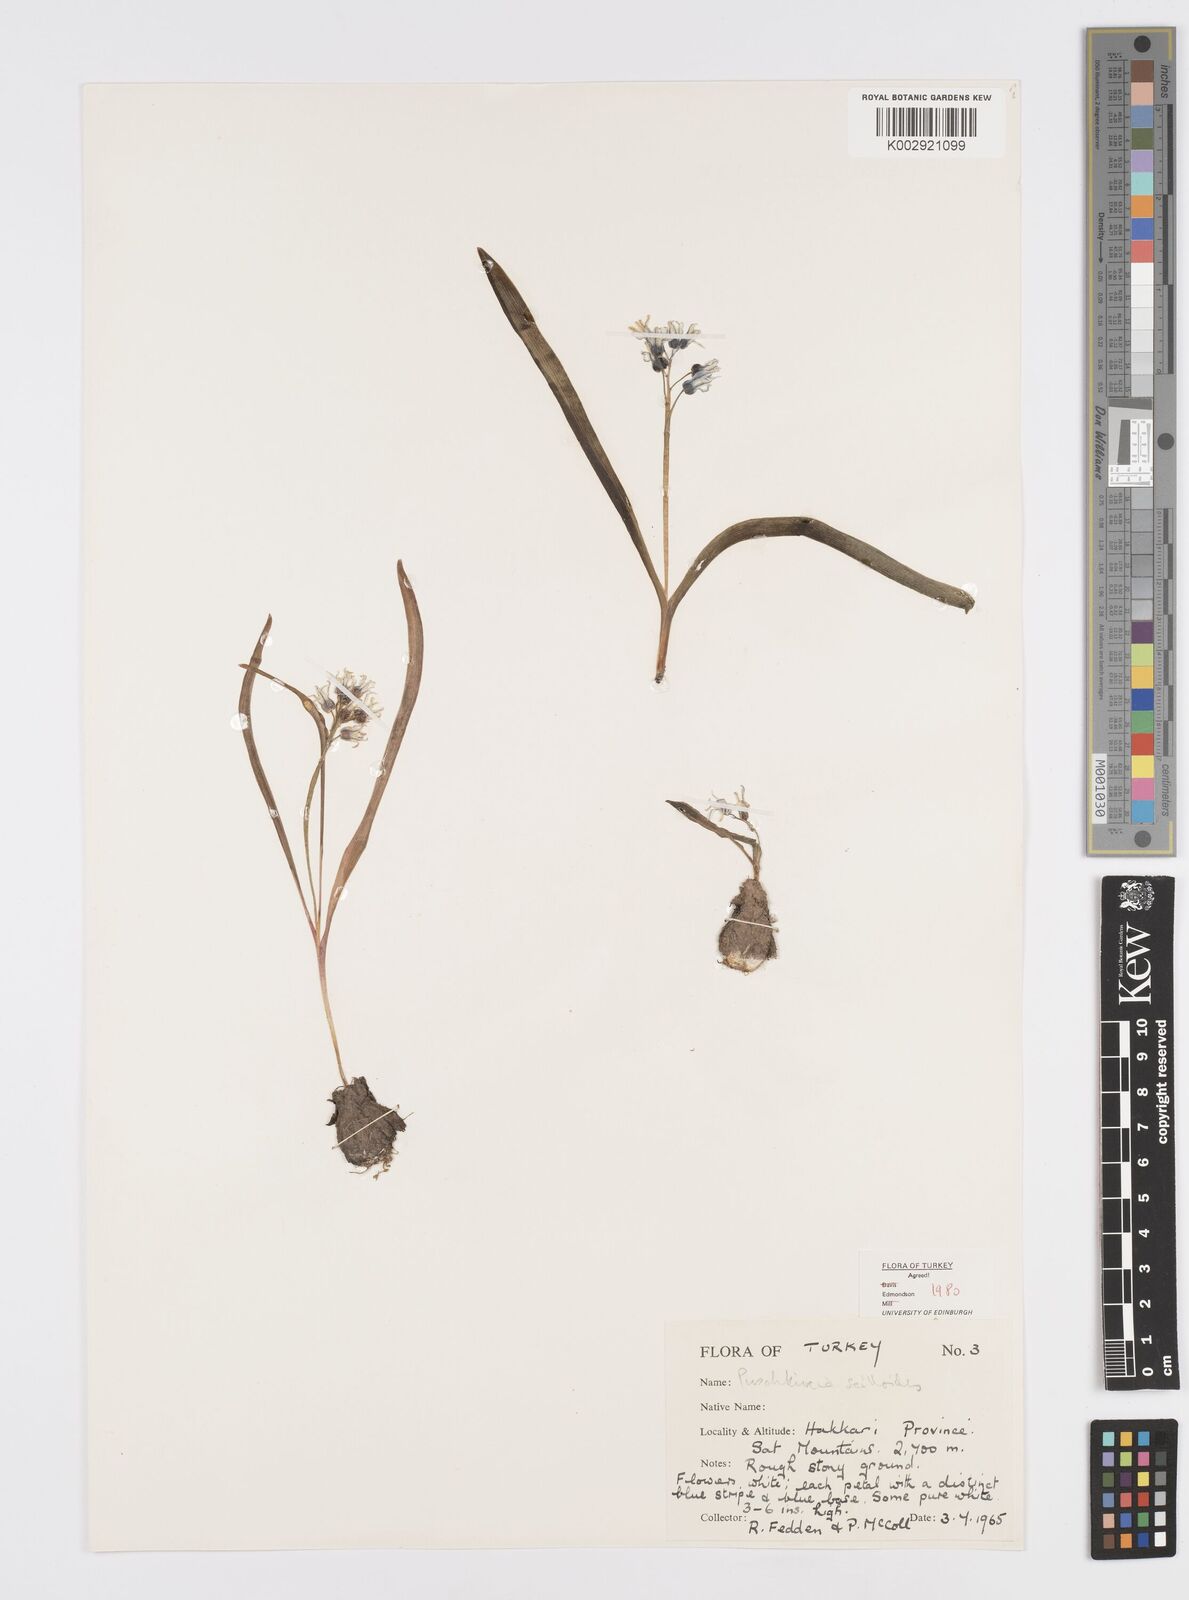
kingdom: Plantae
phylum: Tracheophyta
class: Liliopsida
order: Asparagales
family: Asparagaceae
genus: Puschkinia
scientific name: Puschkinia scilloides
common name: Striped squill
